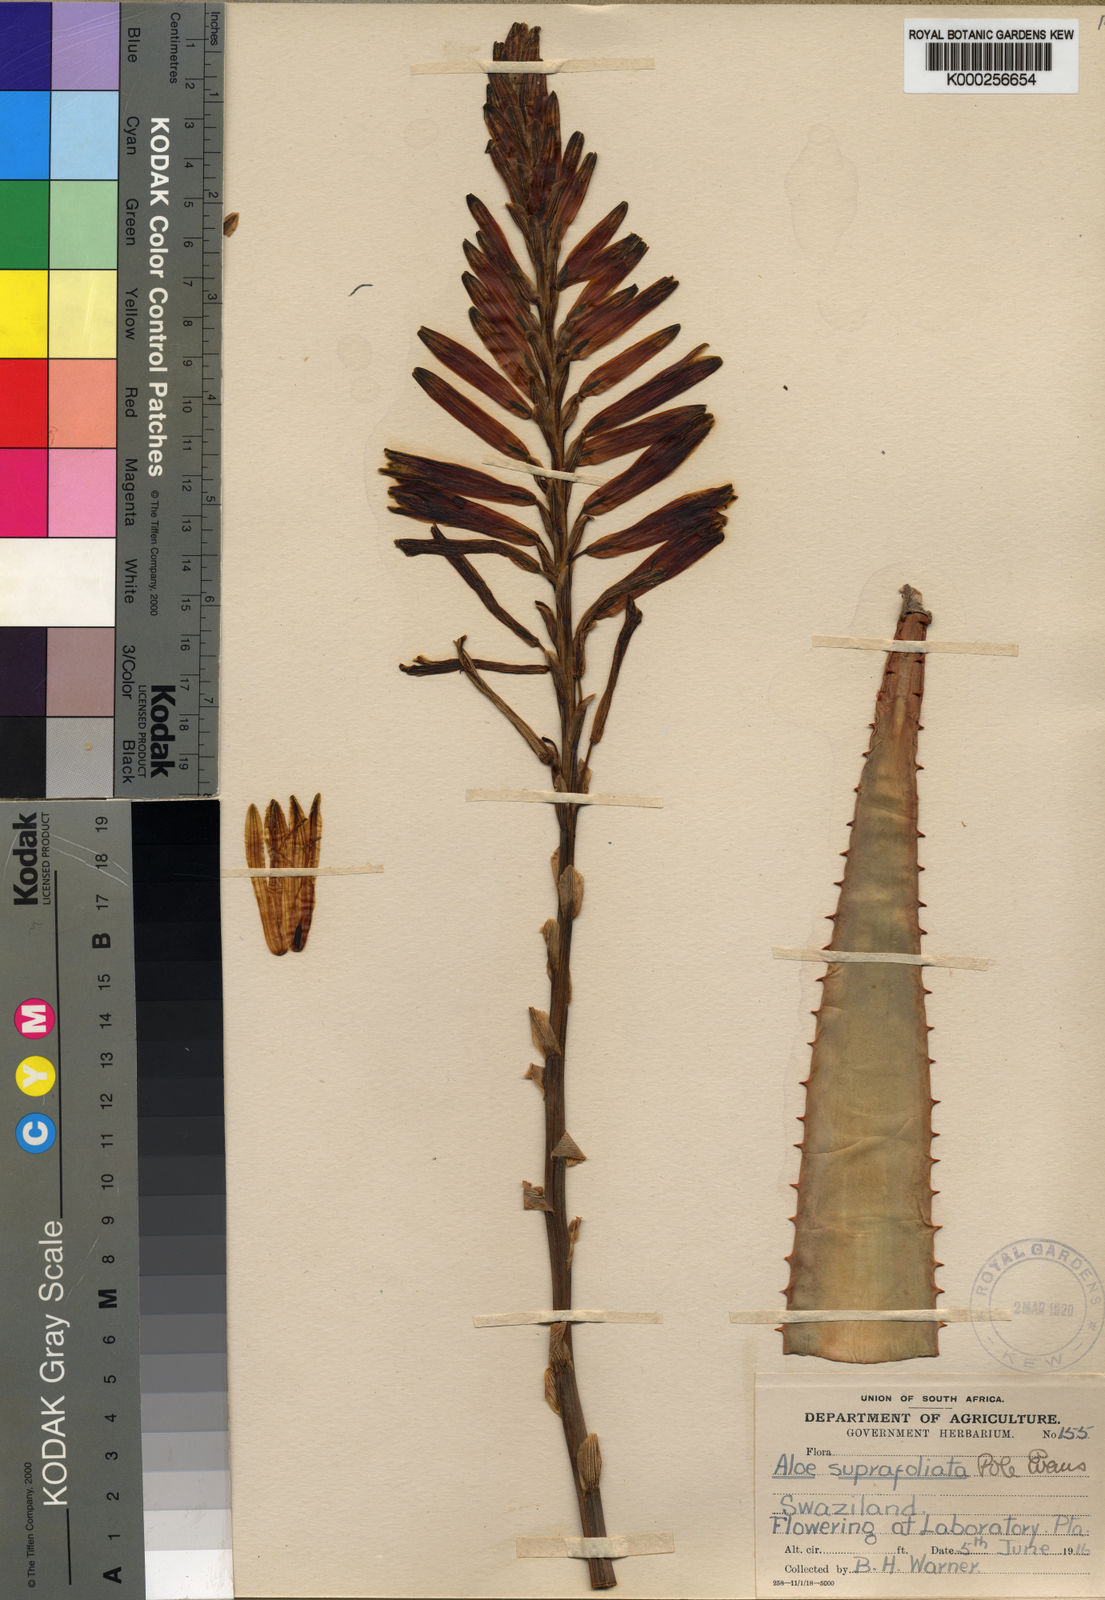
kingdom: Plantae
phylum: Tracheophyta
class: Liliopsida
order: Asparagales
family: Asphodelaceae
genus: Aloe
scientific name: Aloe suprafoliata
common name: Book aloe
